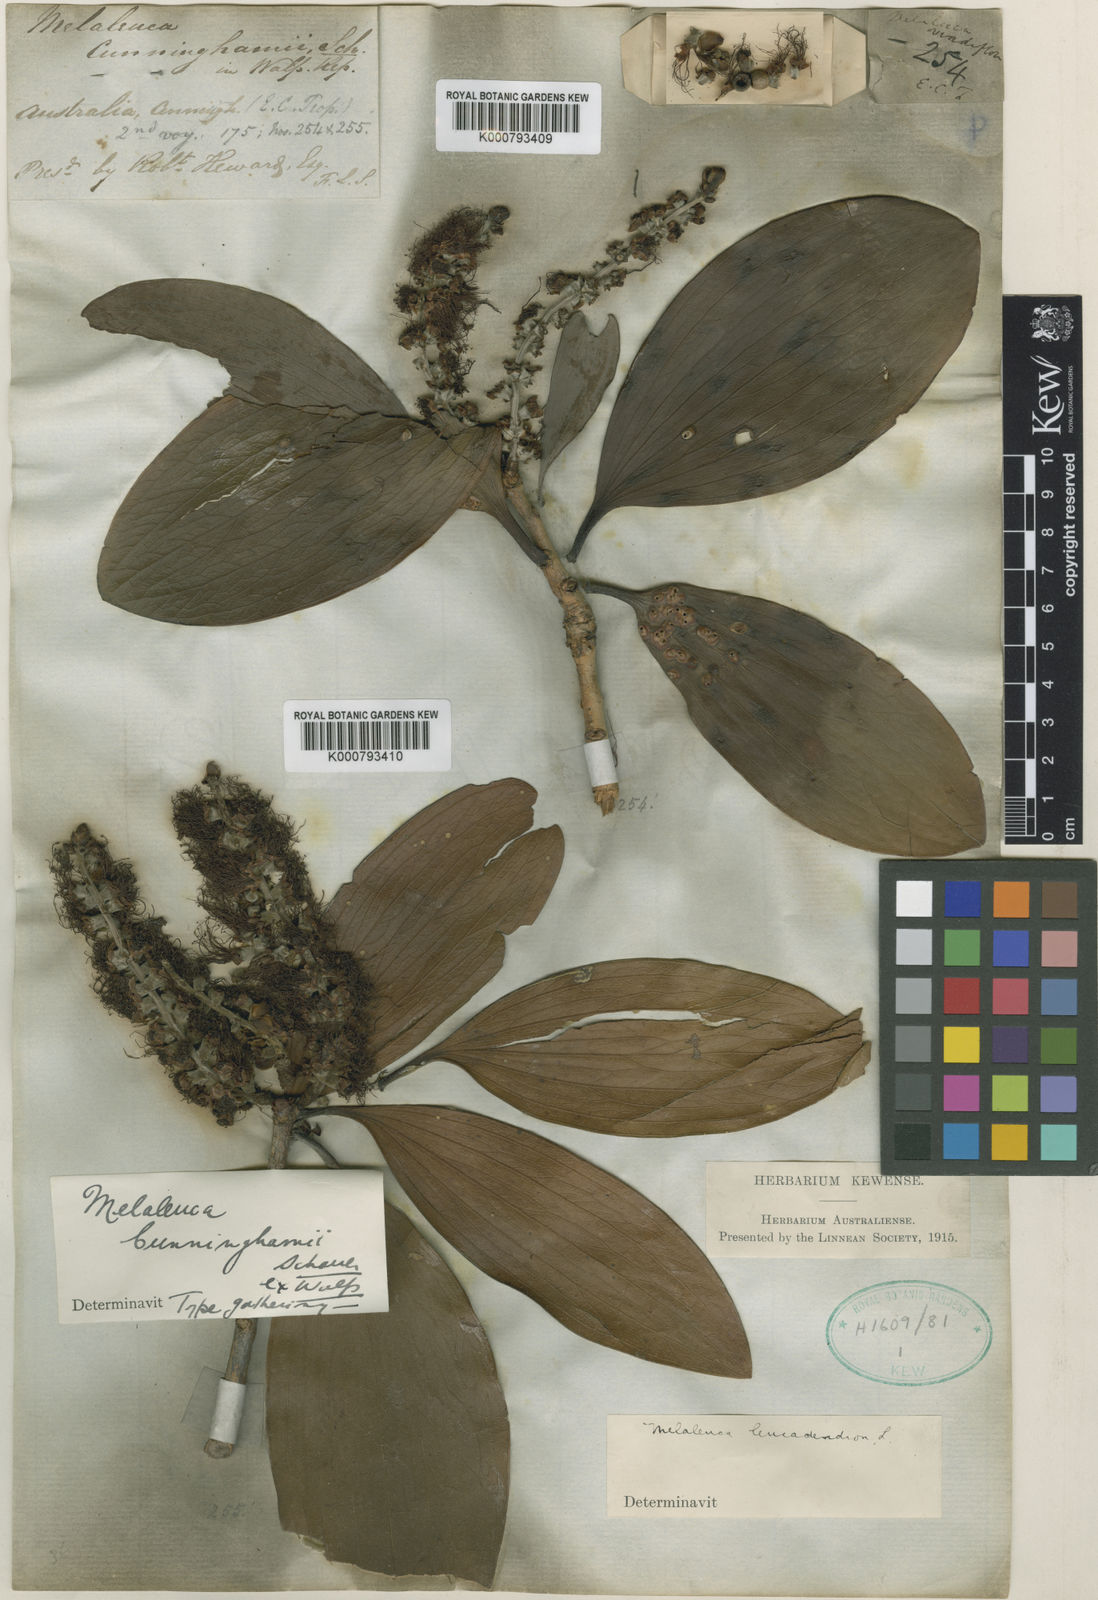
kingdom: Plantae
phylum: Tracheophyta
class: Magnoliopsida
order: Myrtales
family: Myrtaceae
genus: Melaleuca
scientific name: Melaleuca viridiflora
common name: Brown-leaved paperbark
